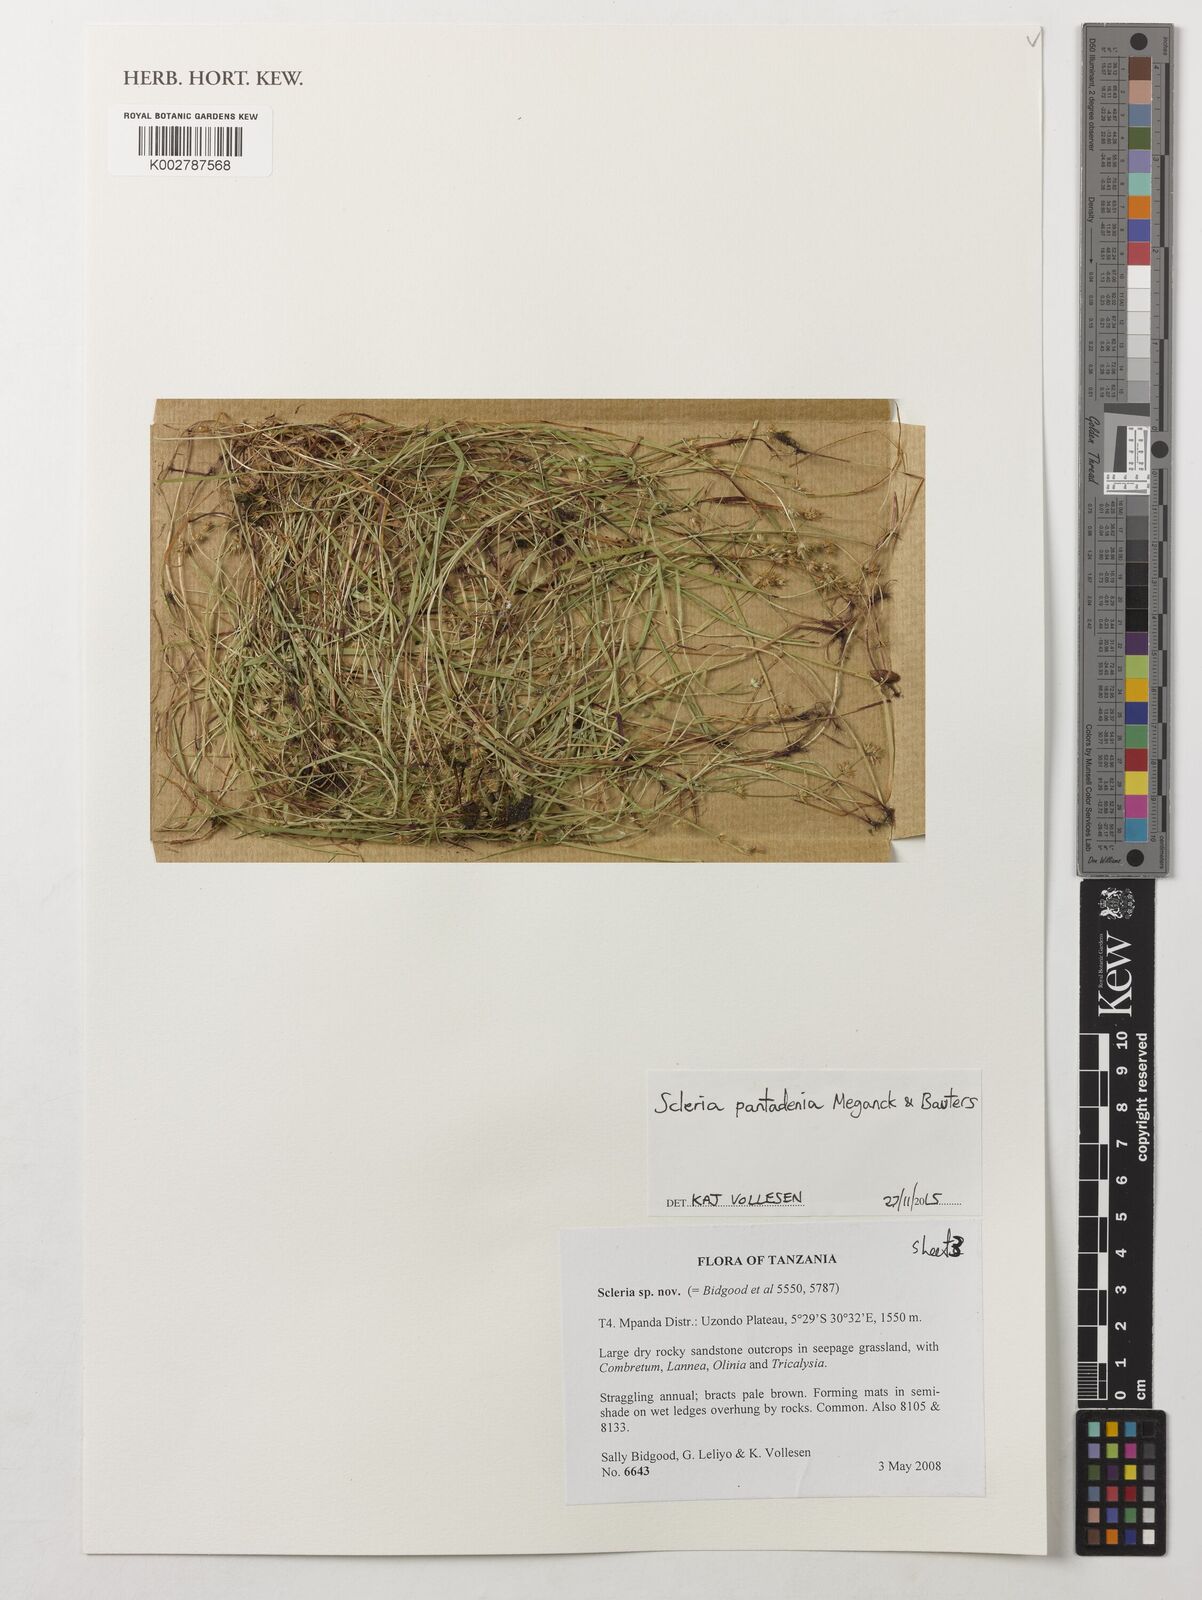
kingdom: Plantae
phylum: Tracheophyta
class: Liliopsida
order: Poales
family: Cyperaceae
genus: Scleria
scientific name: Scleria pantadenia
